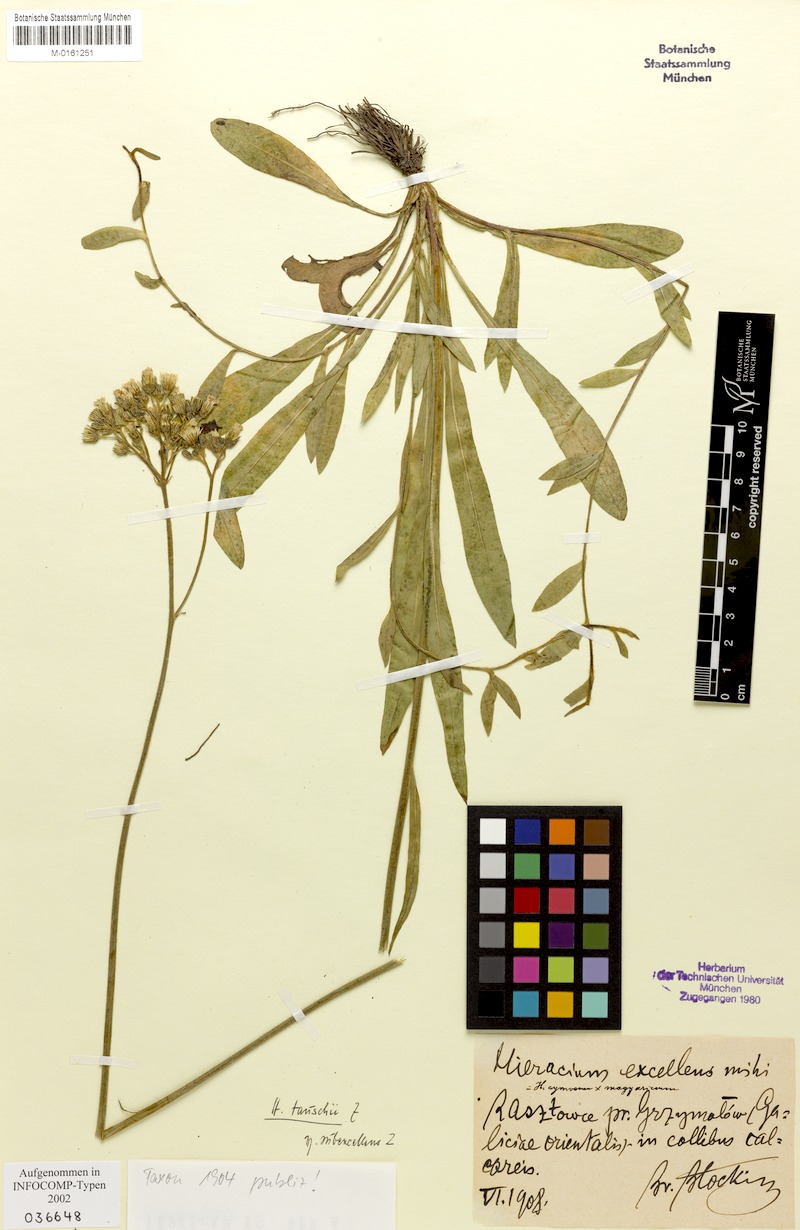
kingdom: Plantae
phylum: Tracheophyta
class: Magnoliopsida
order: Asterales
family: Asteraceae
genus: Pilosella
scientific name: Pilosella densiflora
